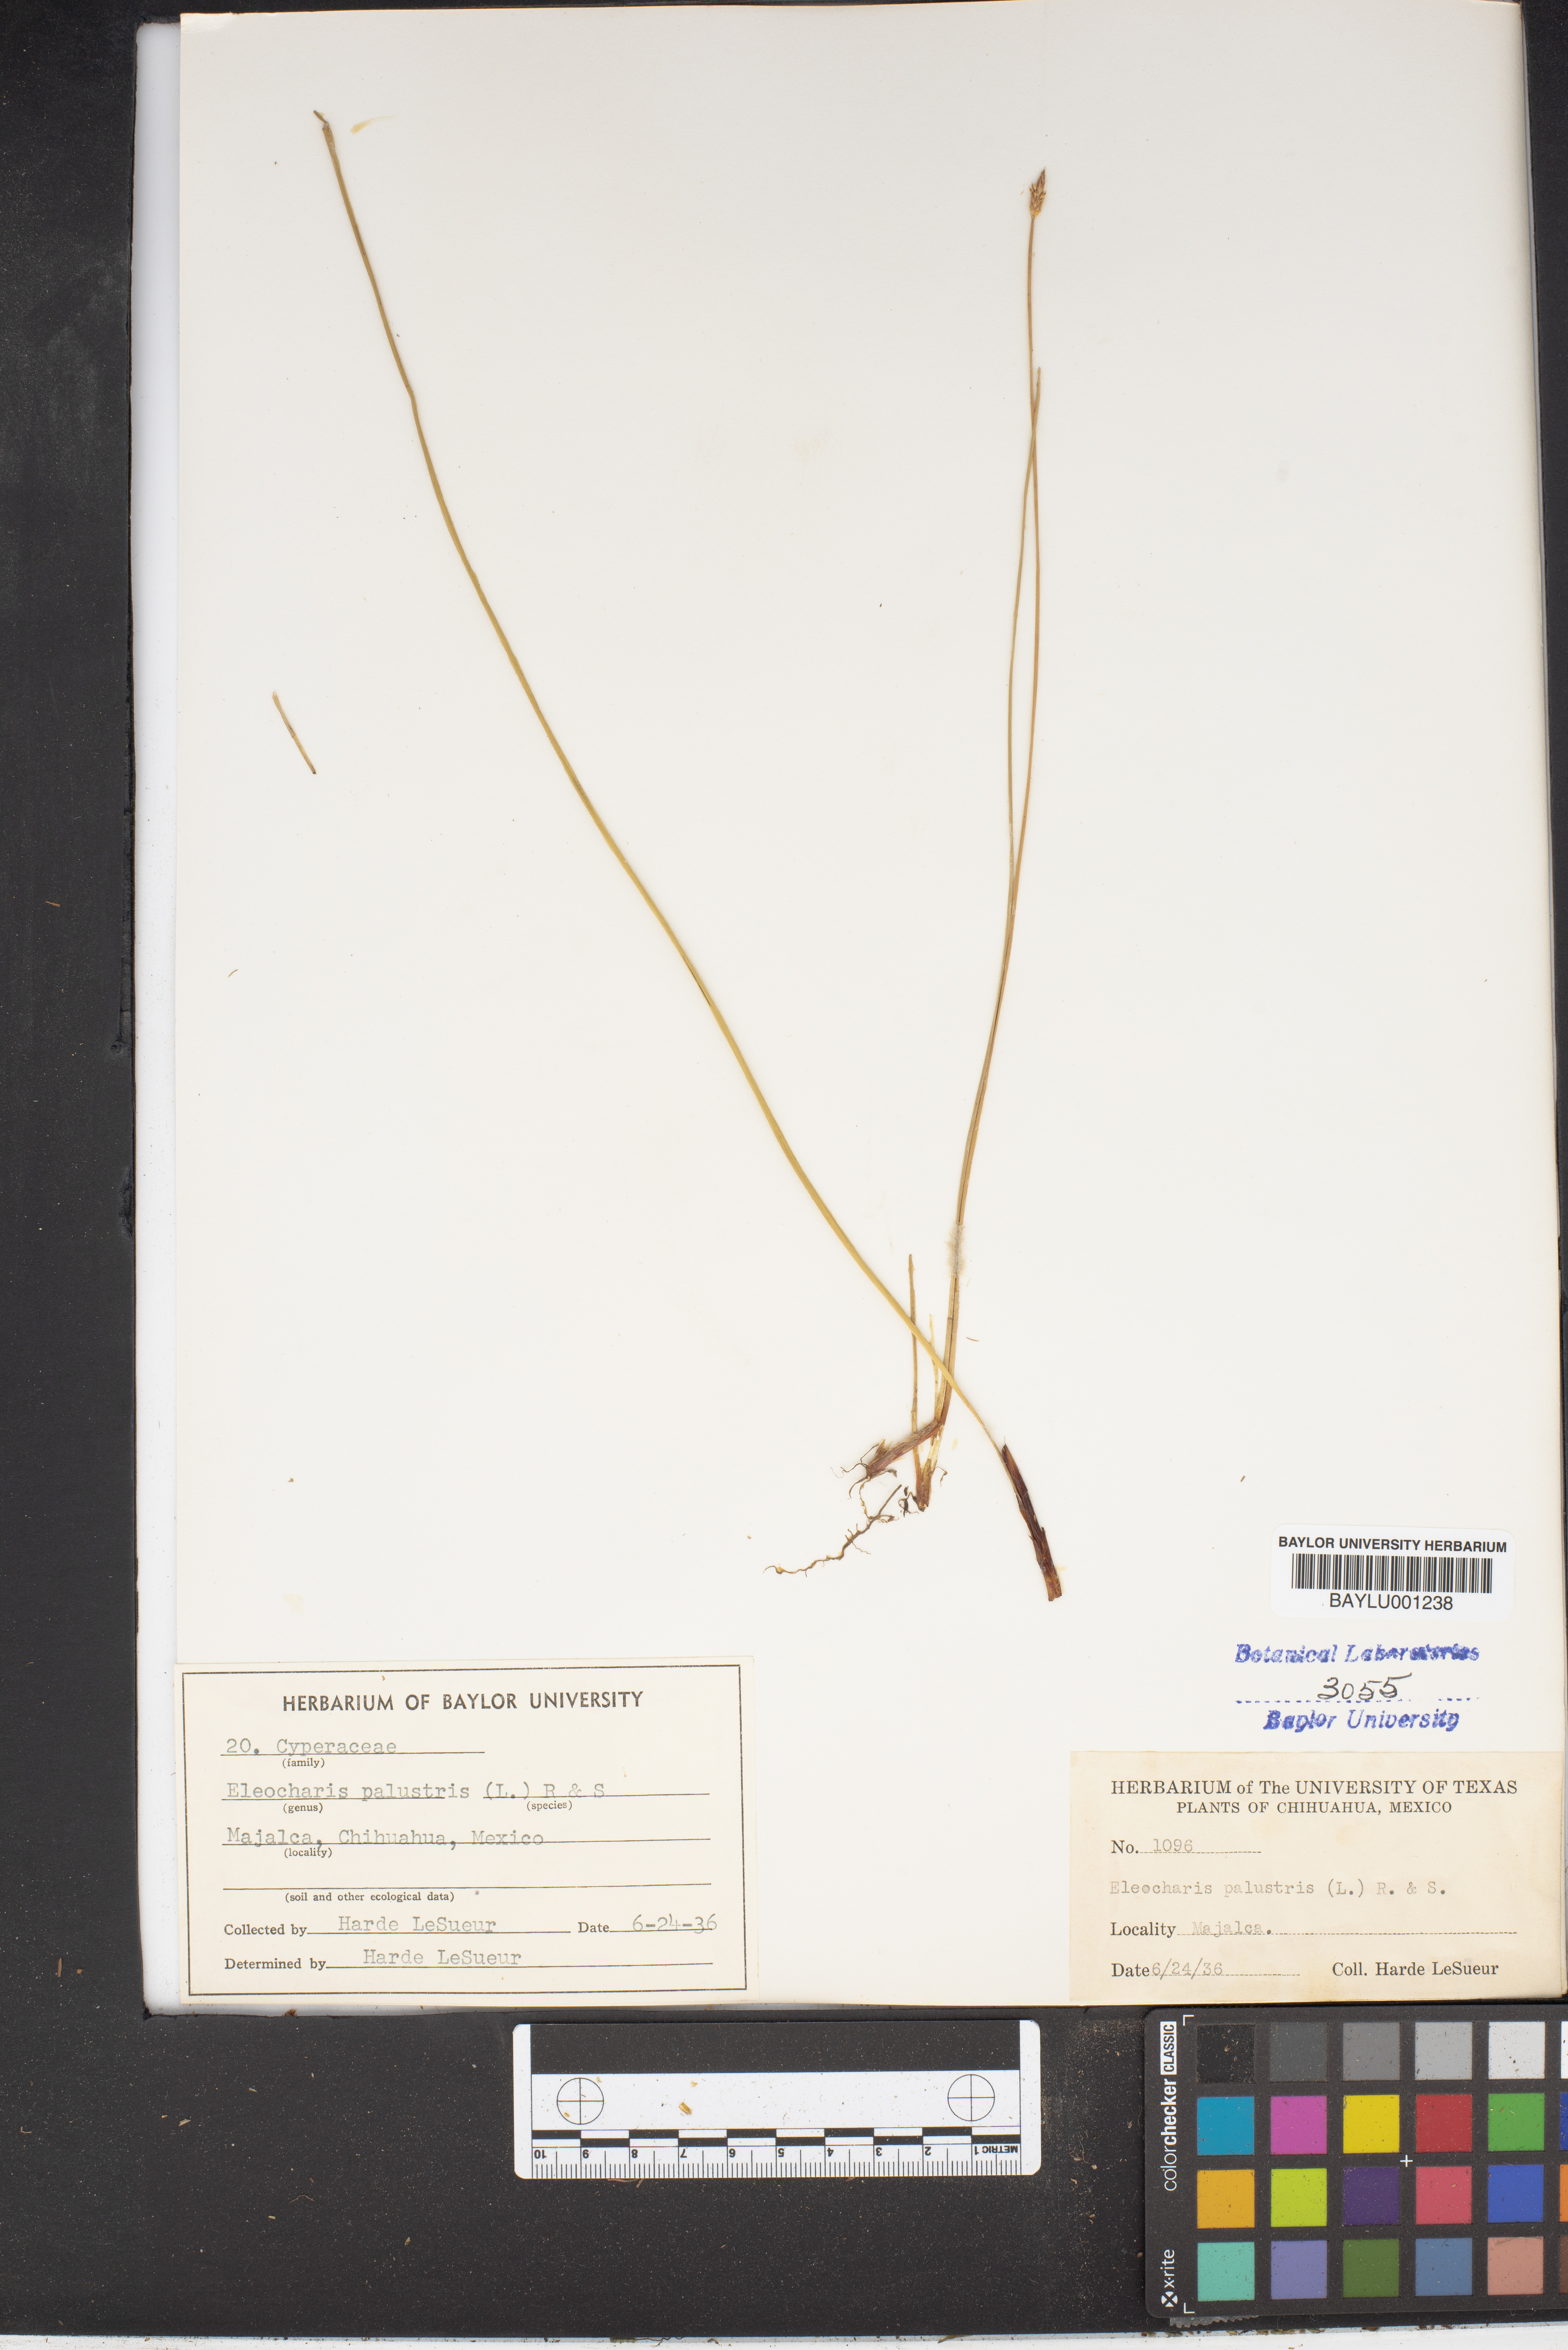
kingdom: Plantae
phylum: Tracheophyta
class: Liliopsida
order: Poales
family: Cyperaceae
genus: Eleocharis
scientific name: Eleocharis palustris
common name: Common spike-rush
